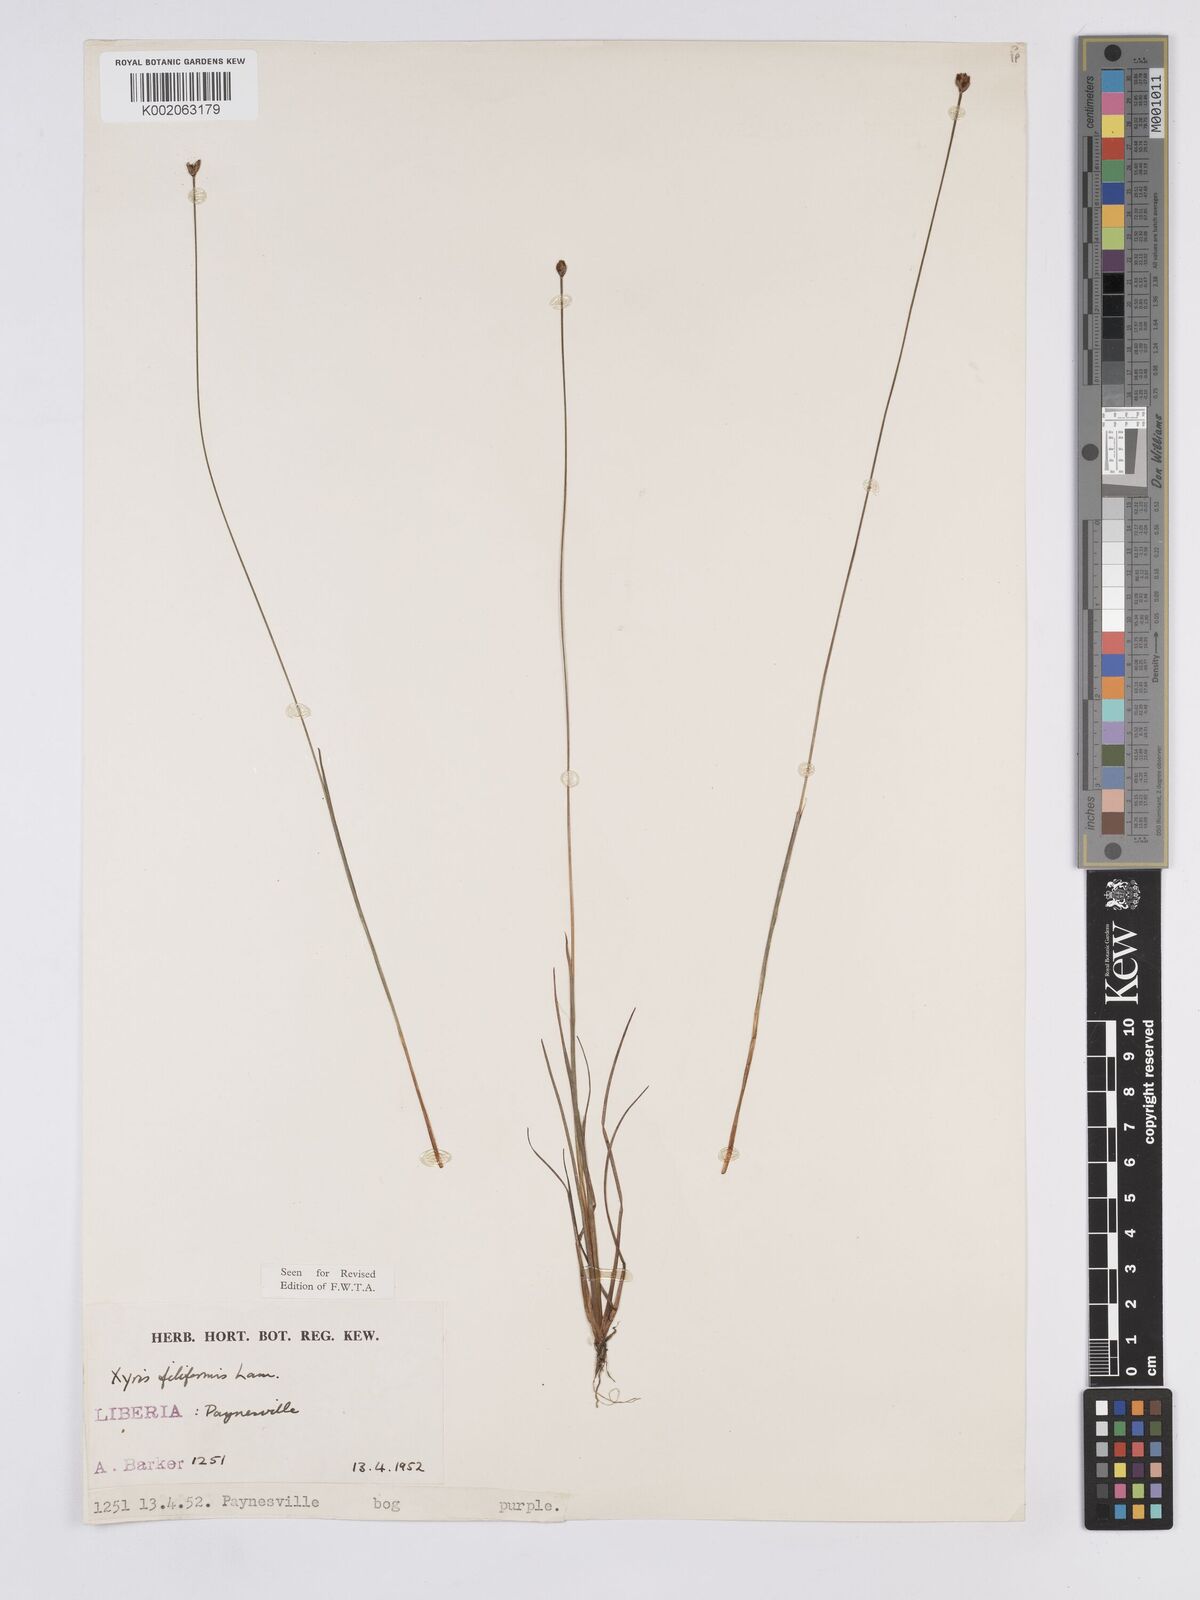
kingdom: Plantae
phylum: Tracheophyta
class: Liliopsida
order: Poales
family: Xyridaceae
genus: Xyris
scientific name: Xyris filiformis
